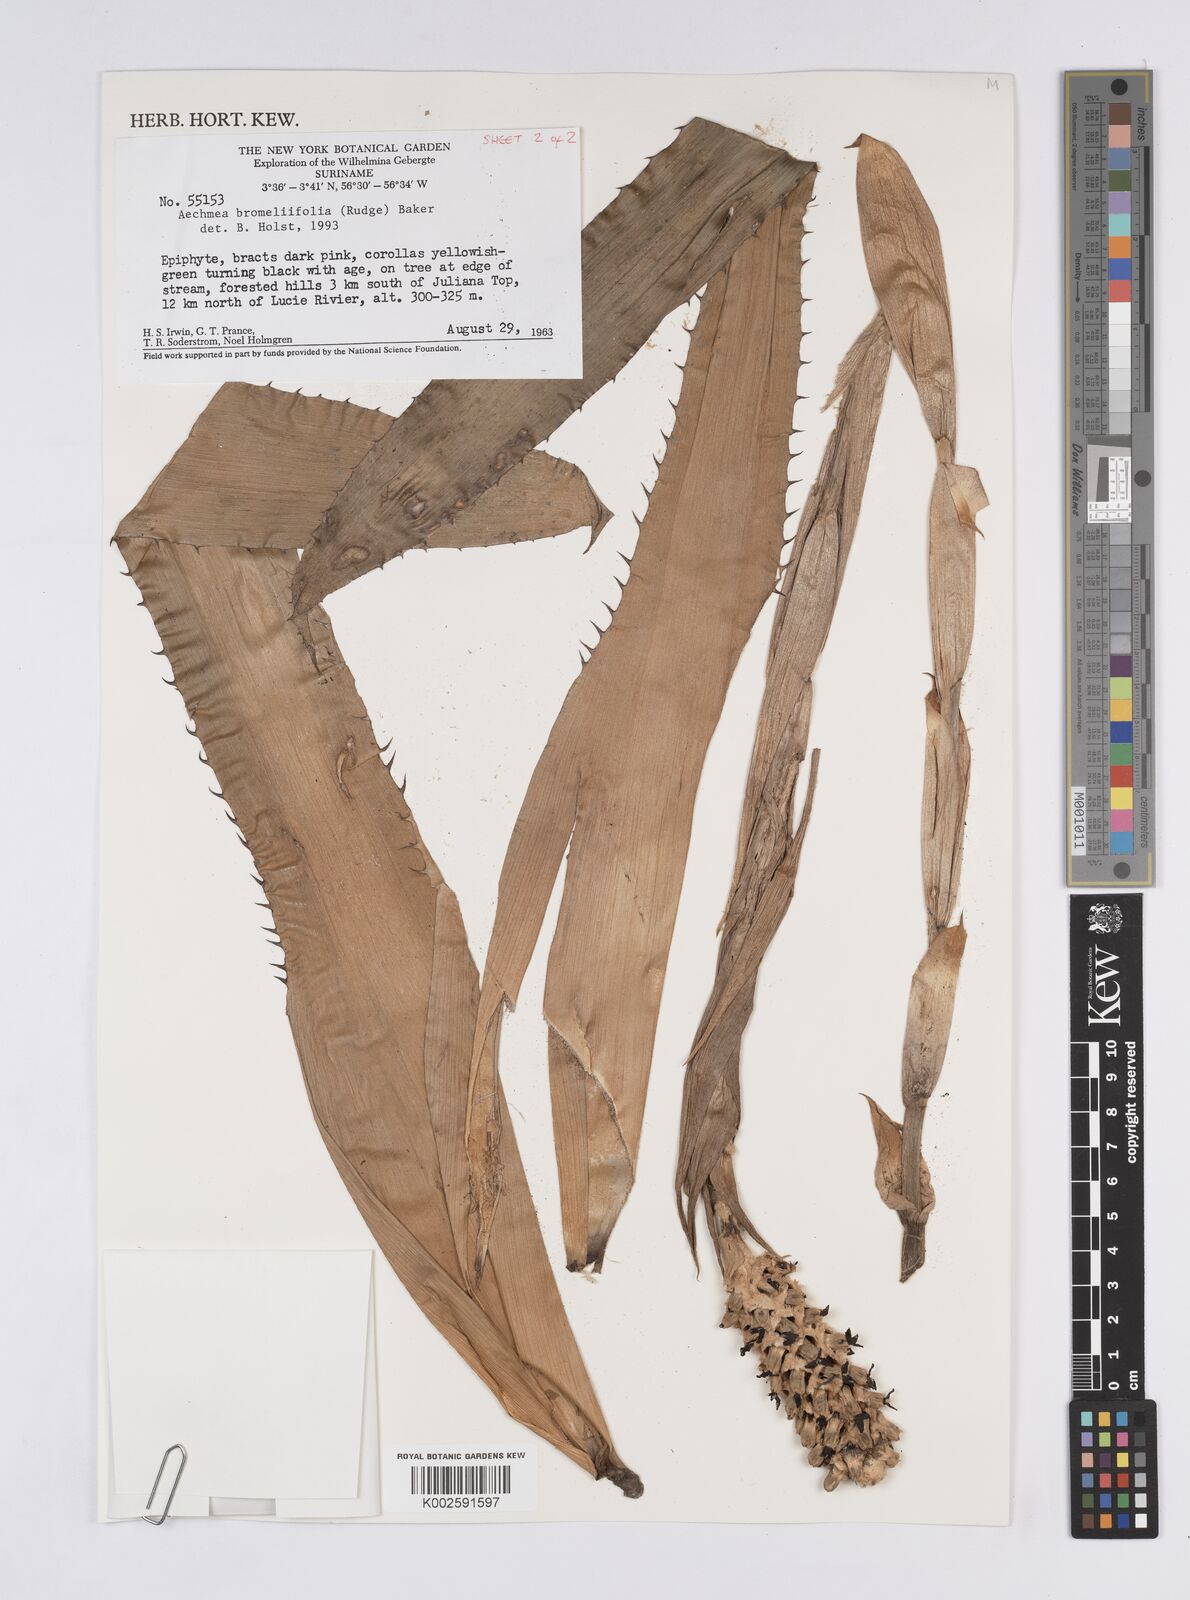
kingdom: Plantae
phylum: Tracheophyta
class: Liliopsida
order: Poales
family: Bromeliaceae
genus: Aechmea
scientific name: Aechmea bromeliifolia
